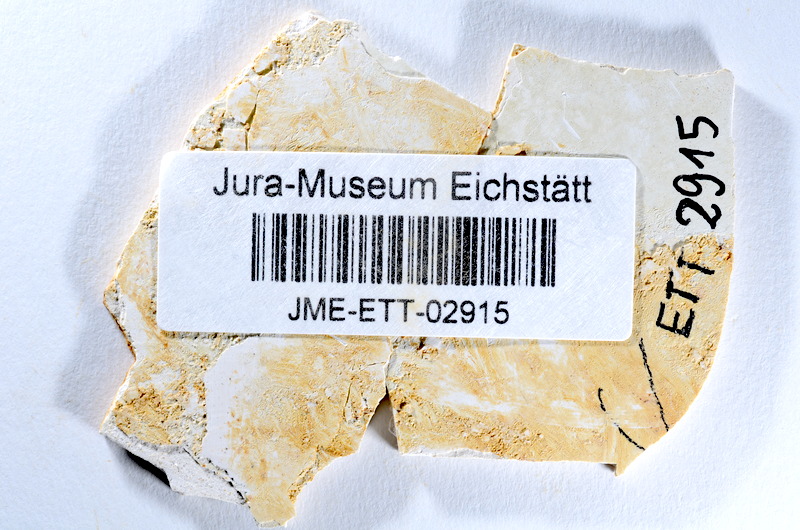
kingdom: Animalia
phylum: Chordata
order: Salmoniformes
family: Orthogonikleithridae
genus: Orthogonikleithrus
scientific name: Orthogonikleithrus hoelli
